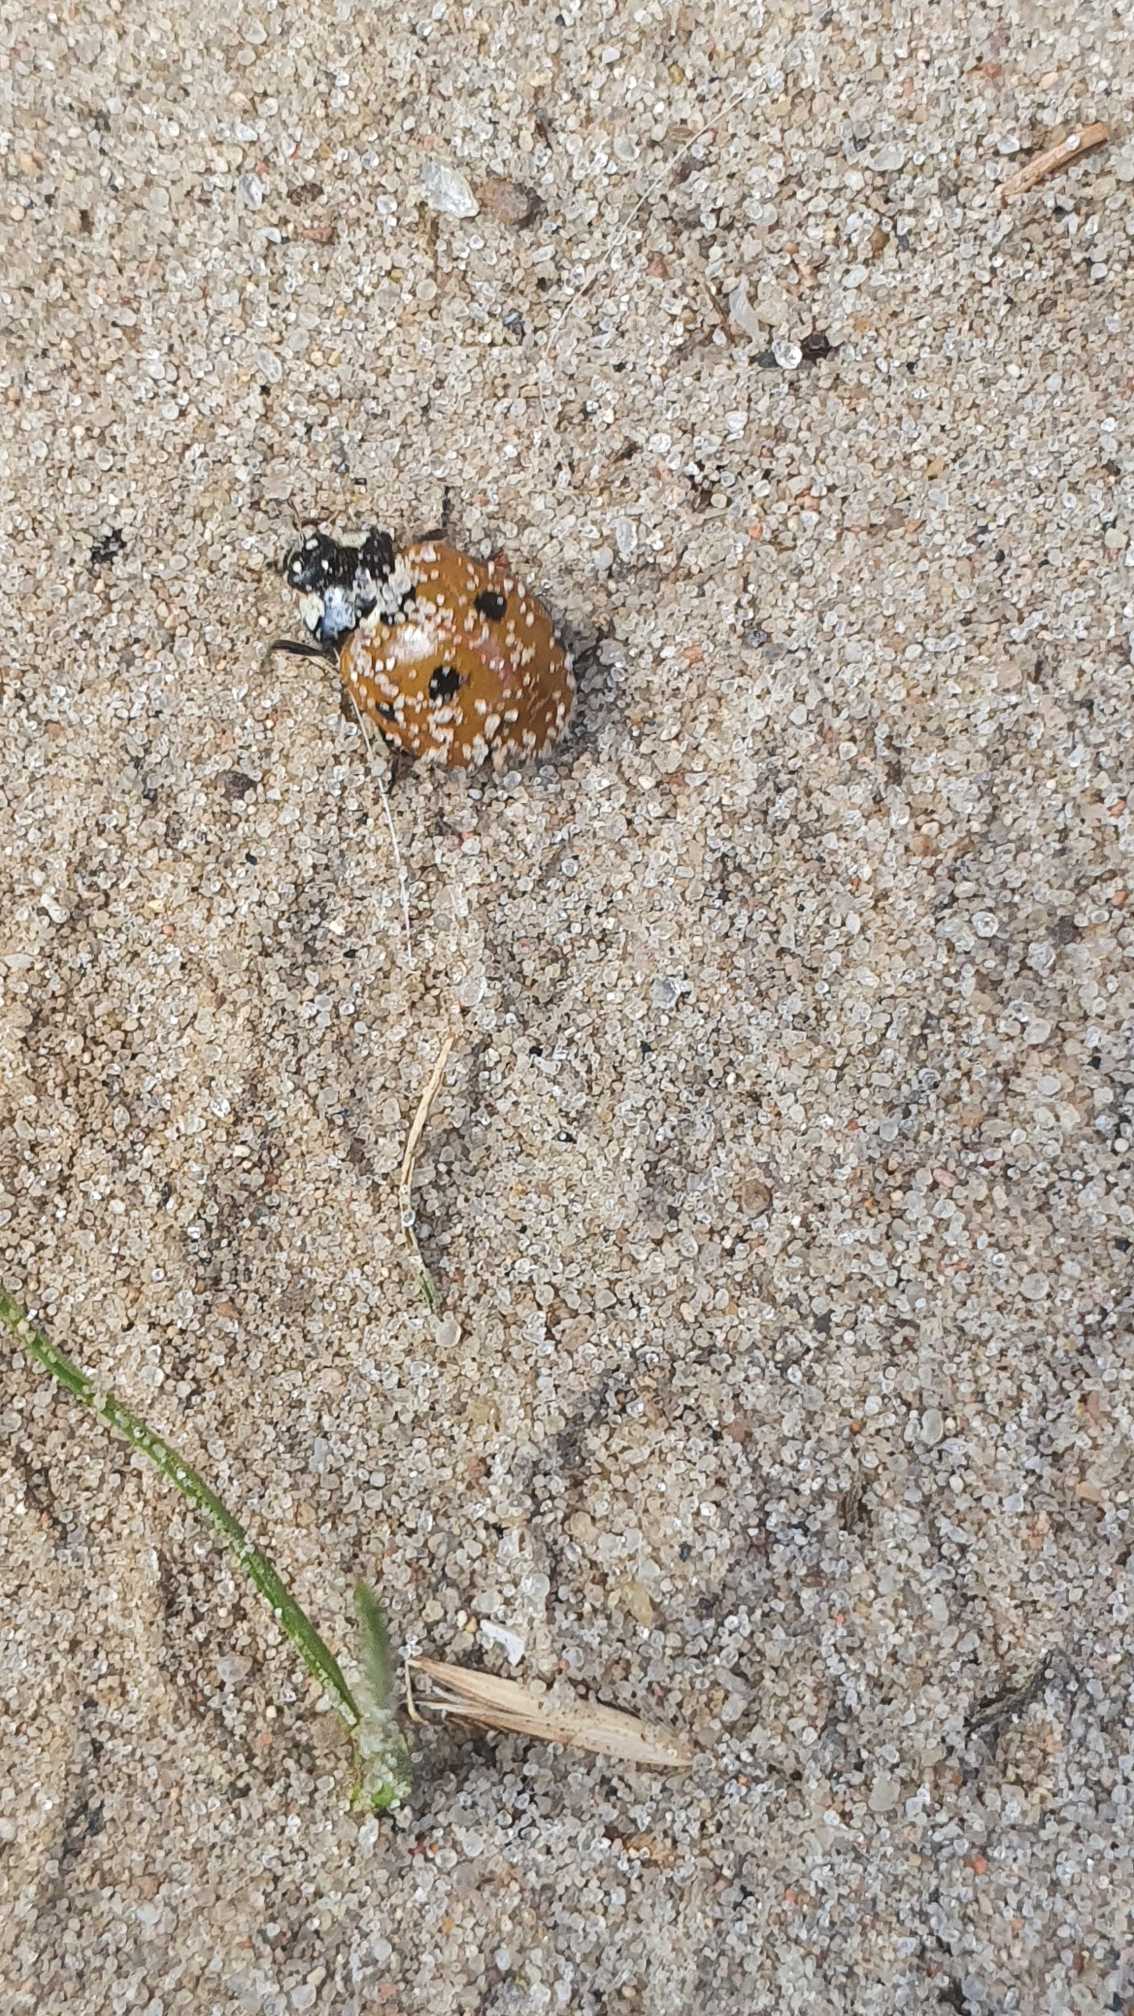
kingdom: Animalia
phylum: Arthropoda
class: Insecta
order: Coleoptera
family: Coccinellidae
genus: Coccinella
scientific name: Coccinella septempunctata
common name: Syvplettet mariehøne
